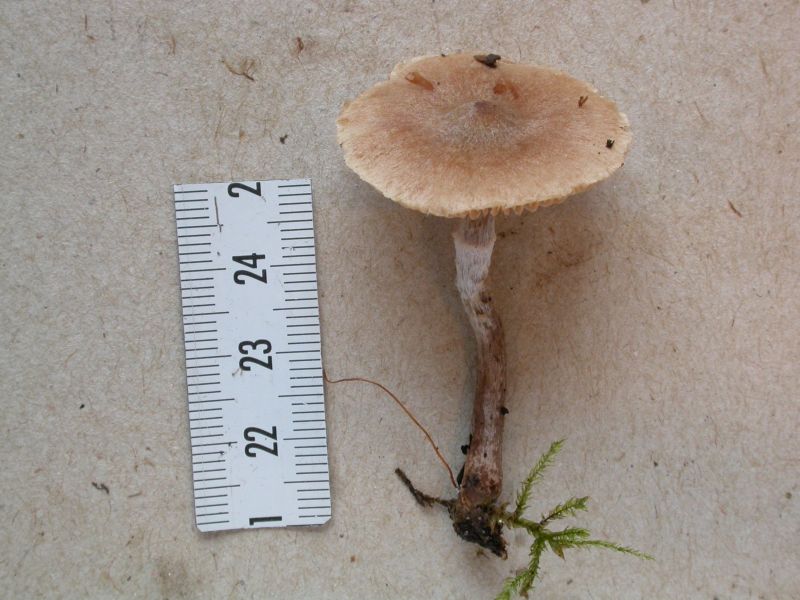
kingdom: Fungi
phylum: Basidiomycota
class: Agaricomycetes
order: Agaricales
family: Cortinariaceae
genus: Cortinarius
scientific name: Cortinarius expallens
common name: bomulds-slørhat
